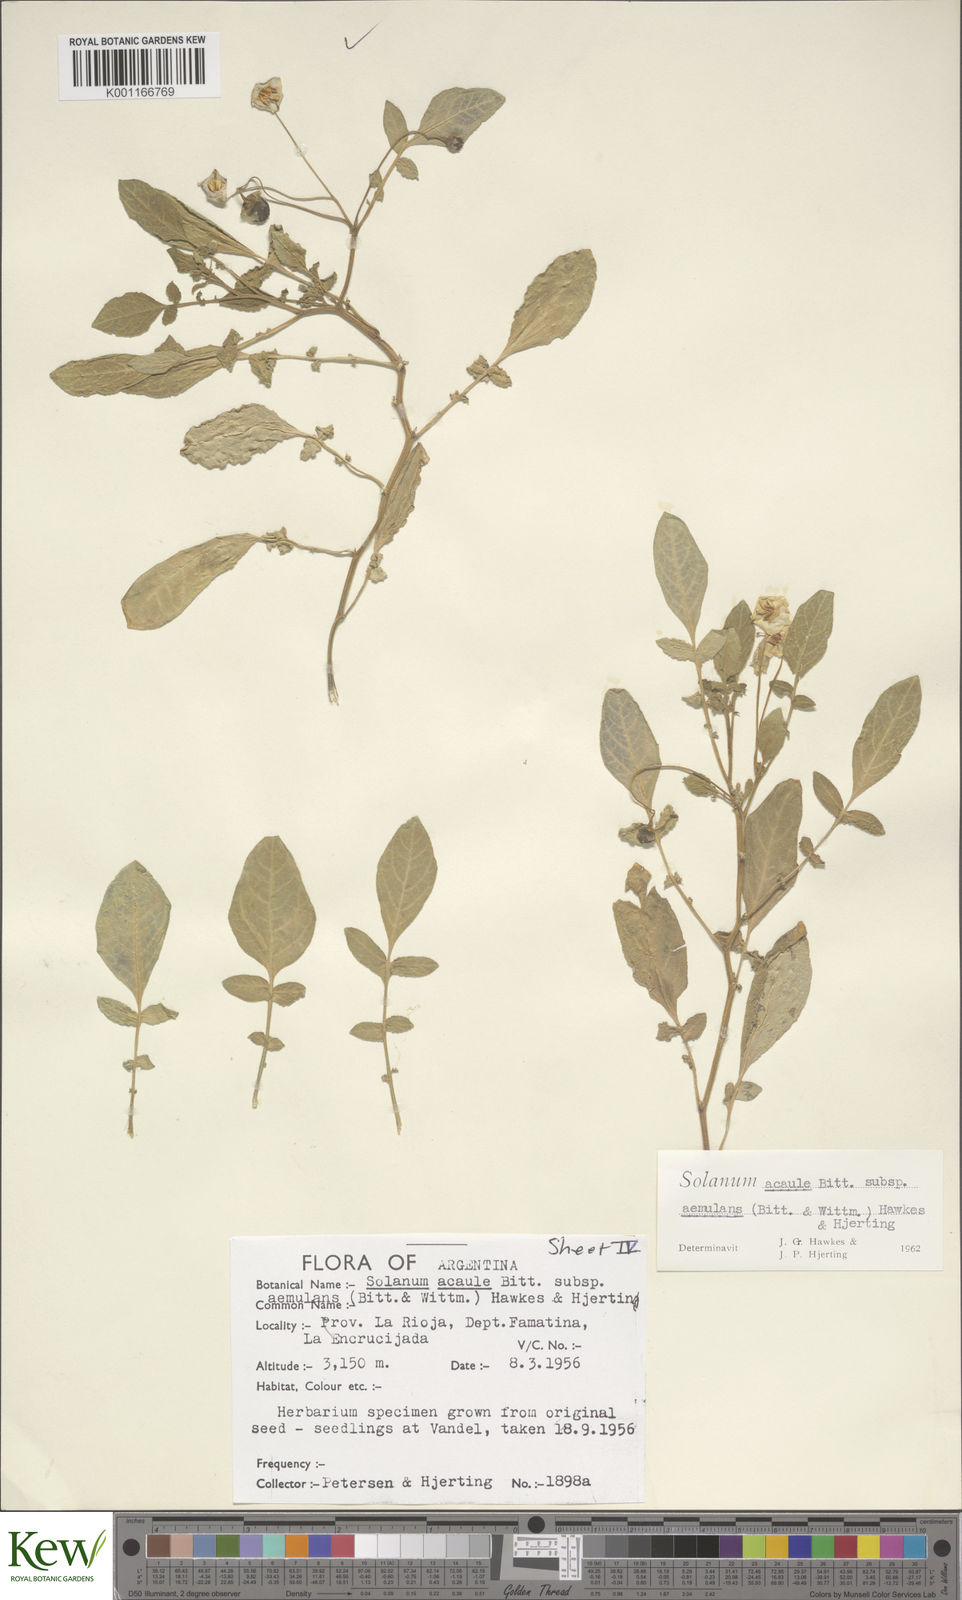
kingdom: Plantae
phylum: Tracheophyta
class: Magnoliopsida
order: Solanales
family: Solanaceae
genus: Solanum
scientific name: Solanum aemulans
